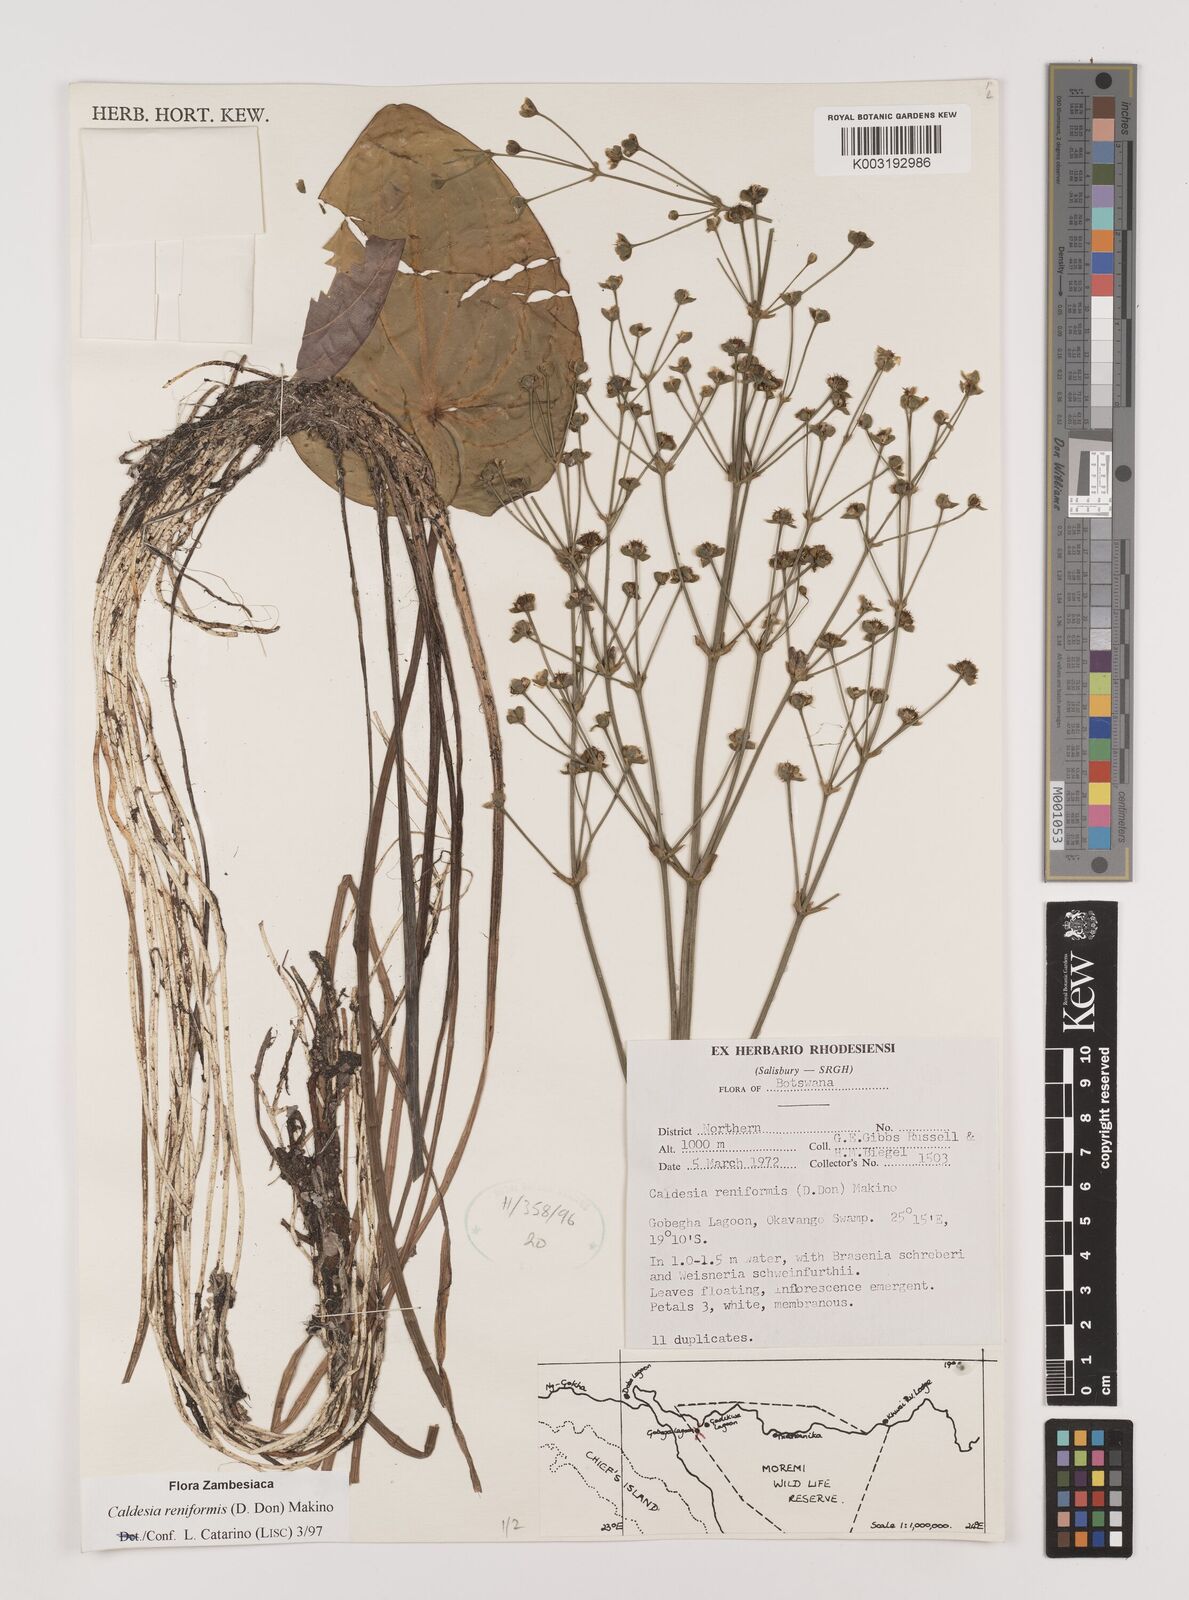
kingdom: Plantae
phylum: Tracheophyta
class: Liliopsida
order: Alismatales
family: Alismataceae
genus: Caldesia
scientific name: Caldesia parnassifolia
